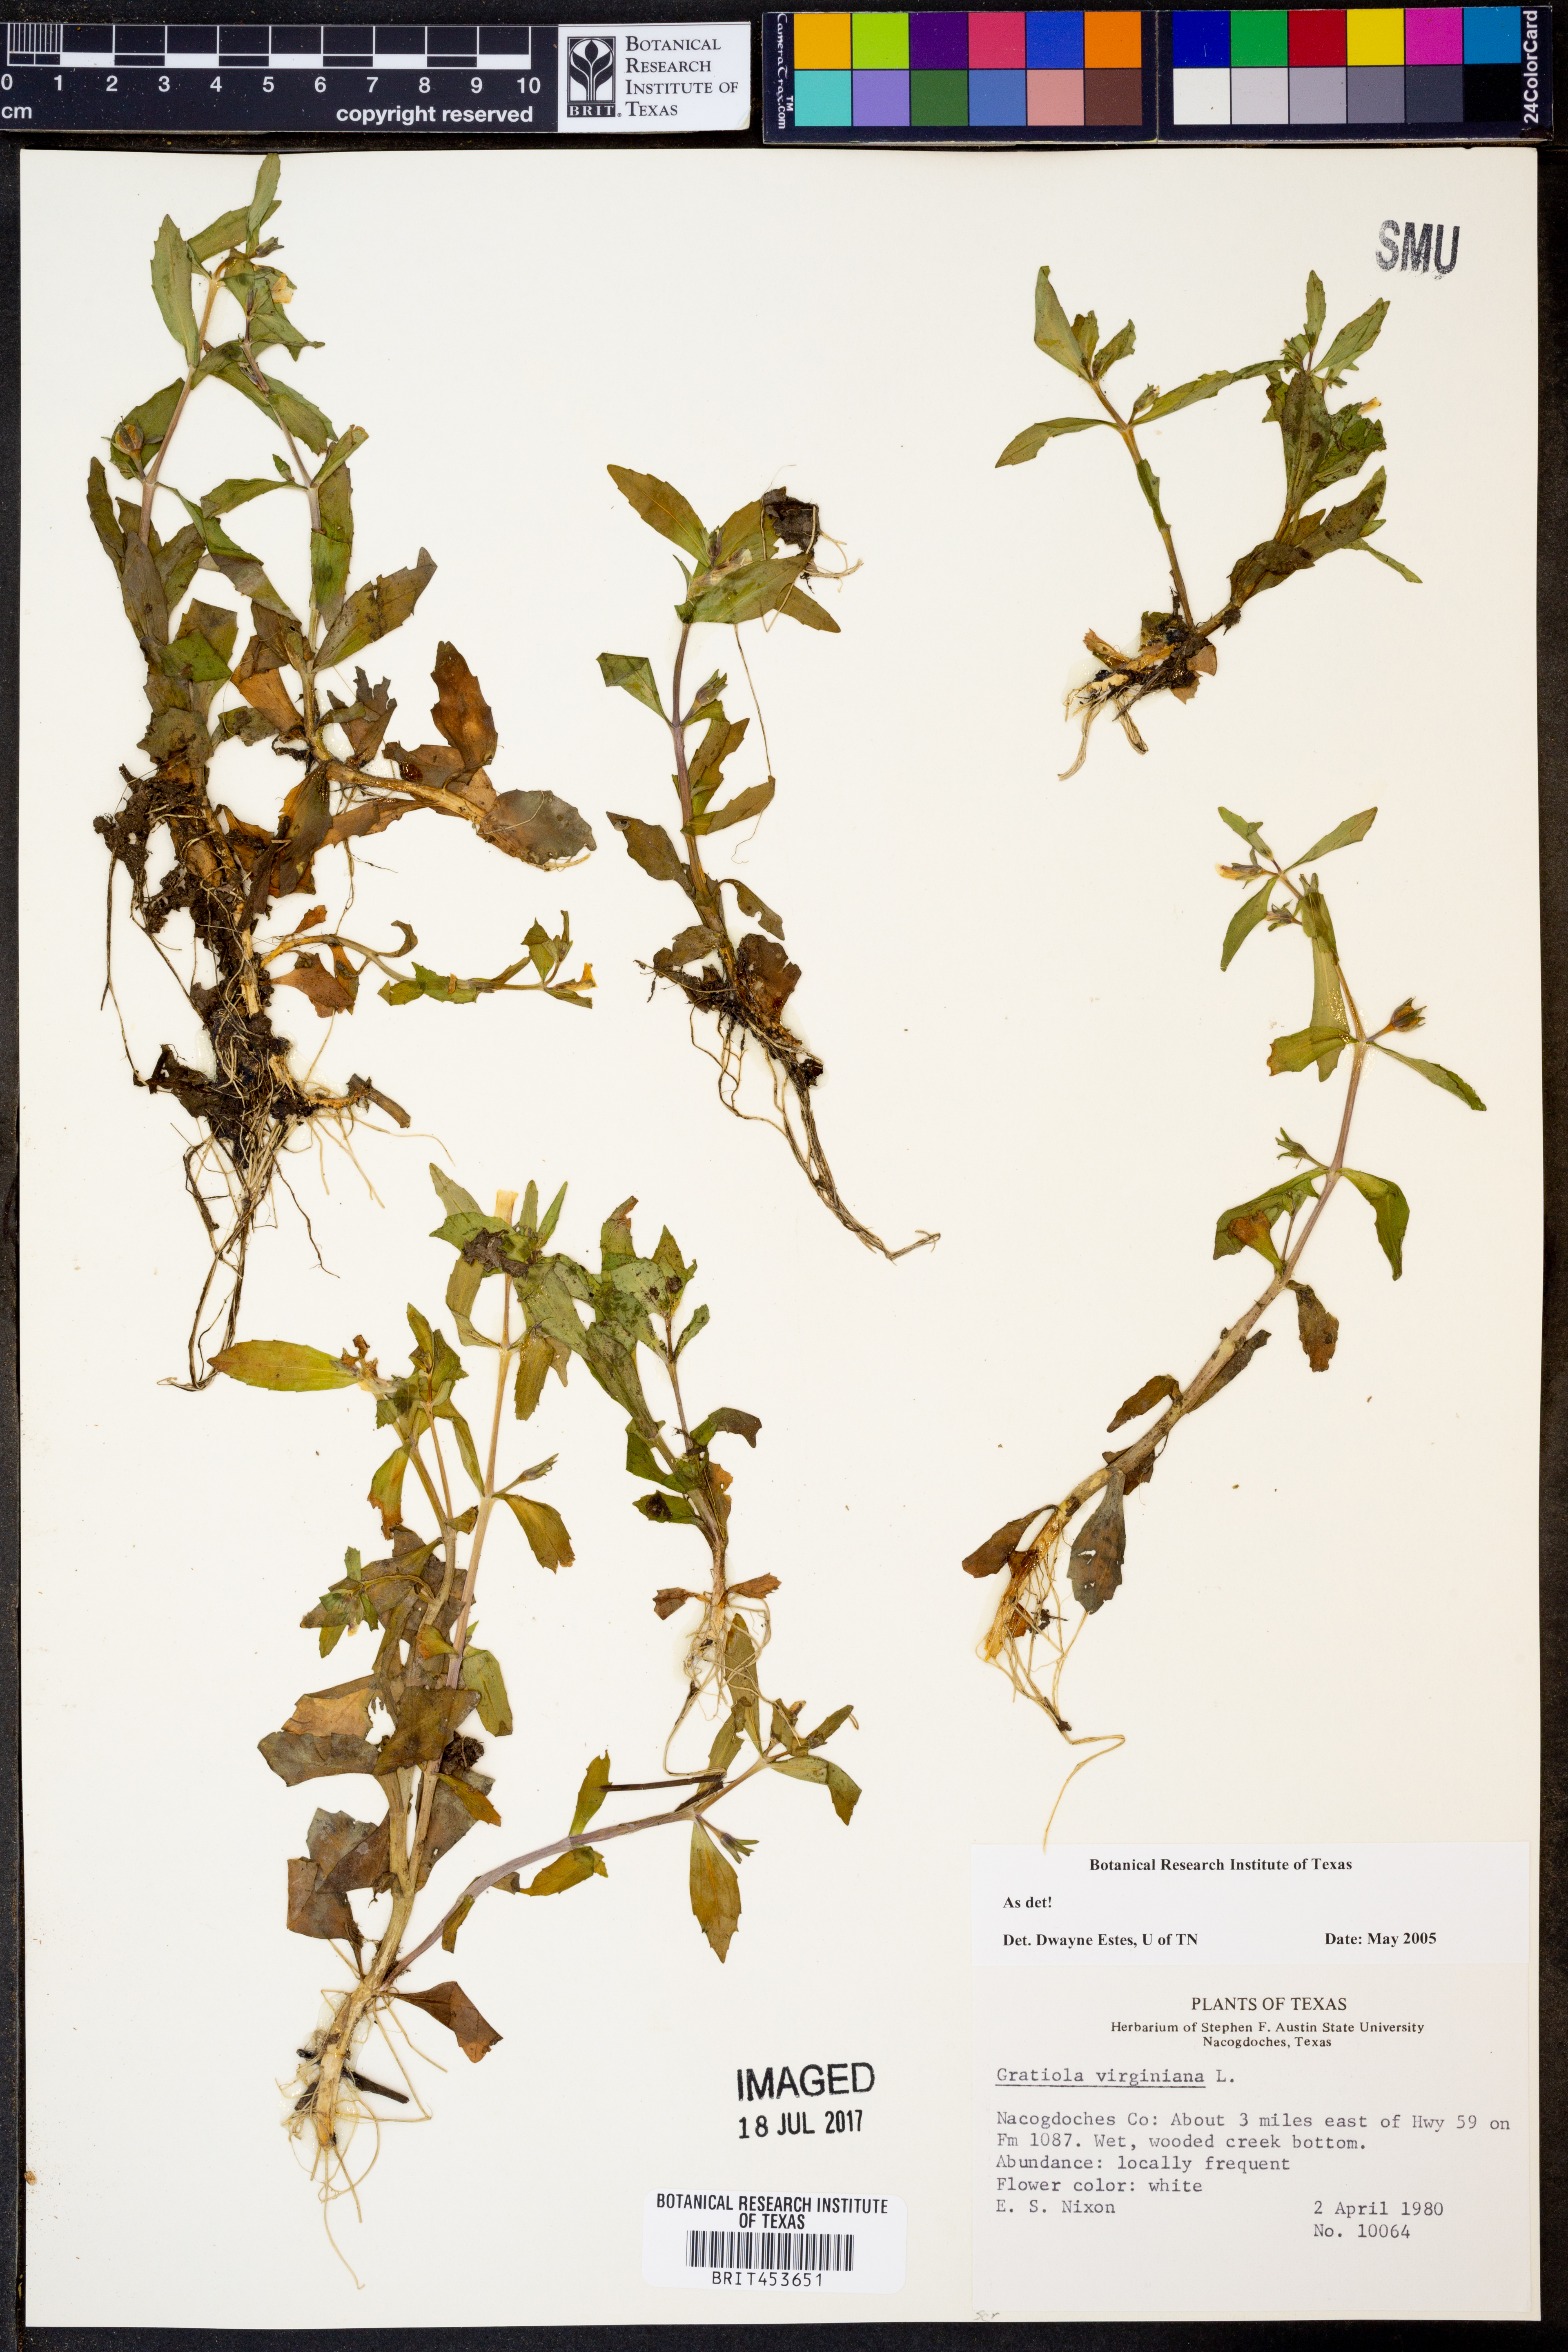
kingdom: Plantae
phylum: Tracheophyta
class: Magnoliopsida
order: Lamiales
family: Plantaginaceae
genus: Gratiola
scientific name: Gratiola virginiana
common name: Roundfruit hedgehyssop
